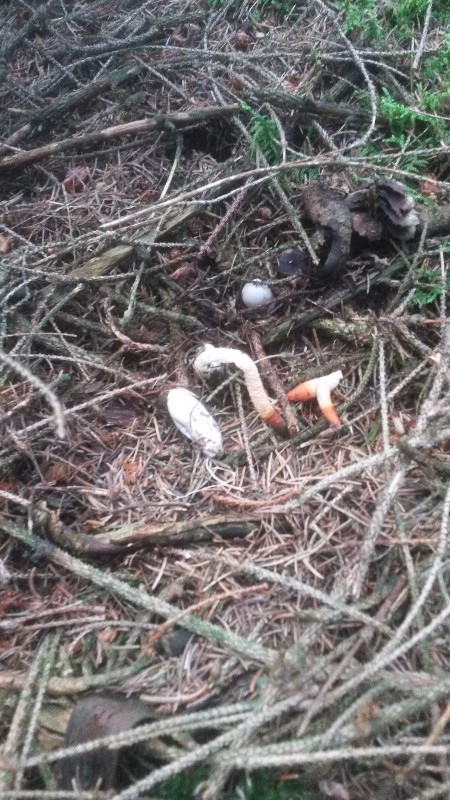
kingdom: Fungi
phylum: Basidiomycota
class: Agaricomycetes
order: Phallales
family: Phallaceae
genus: Mutinus
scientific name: Mutinus caninus
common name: hunde-stinksvamp
